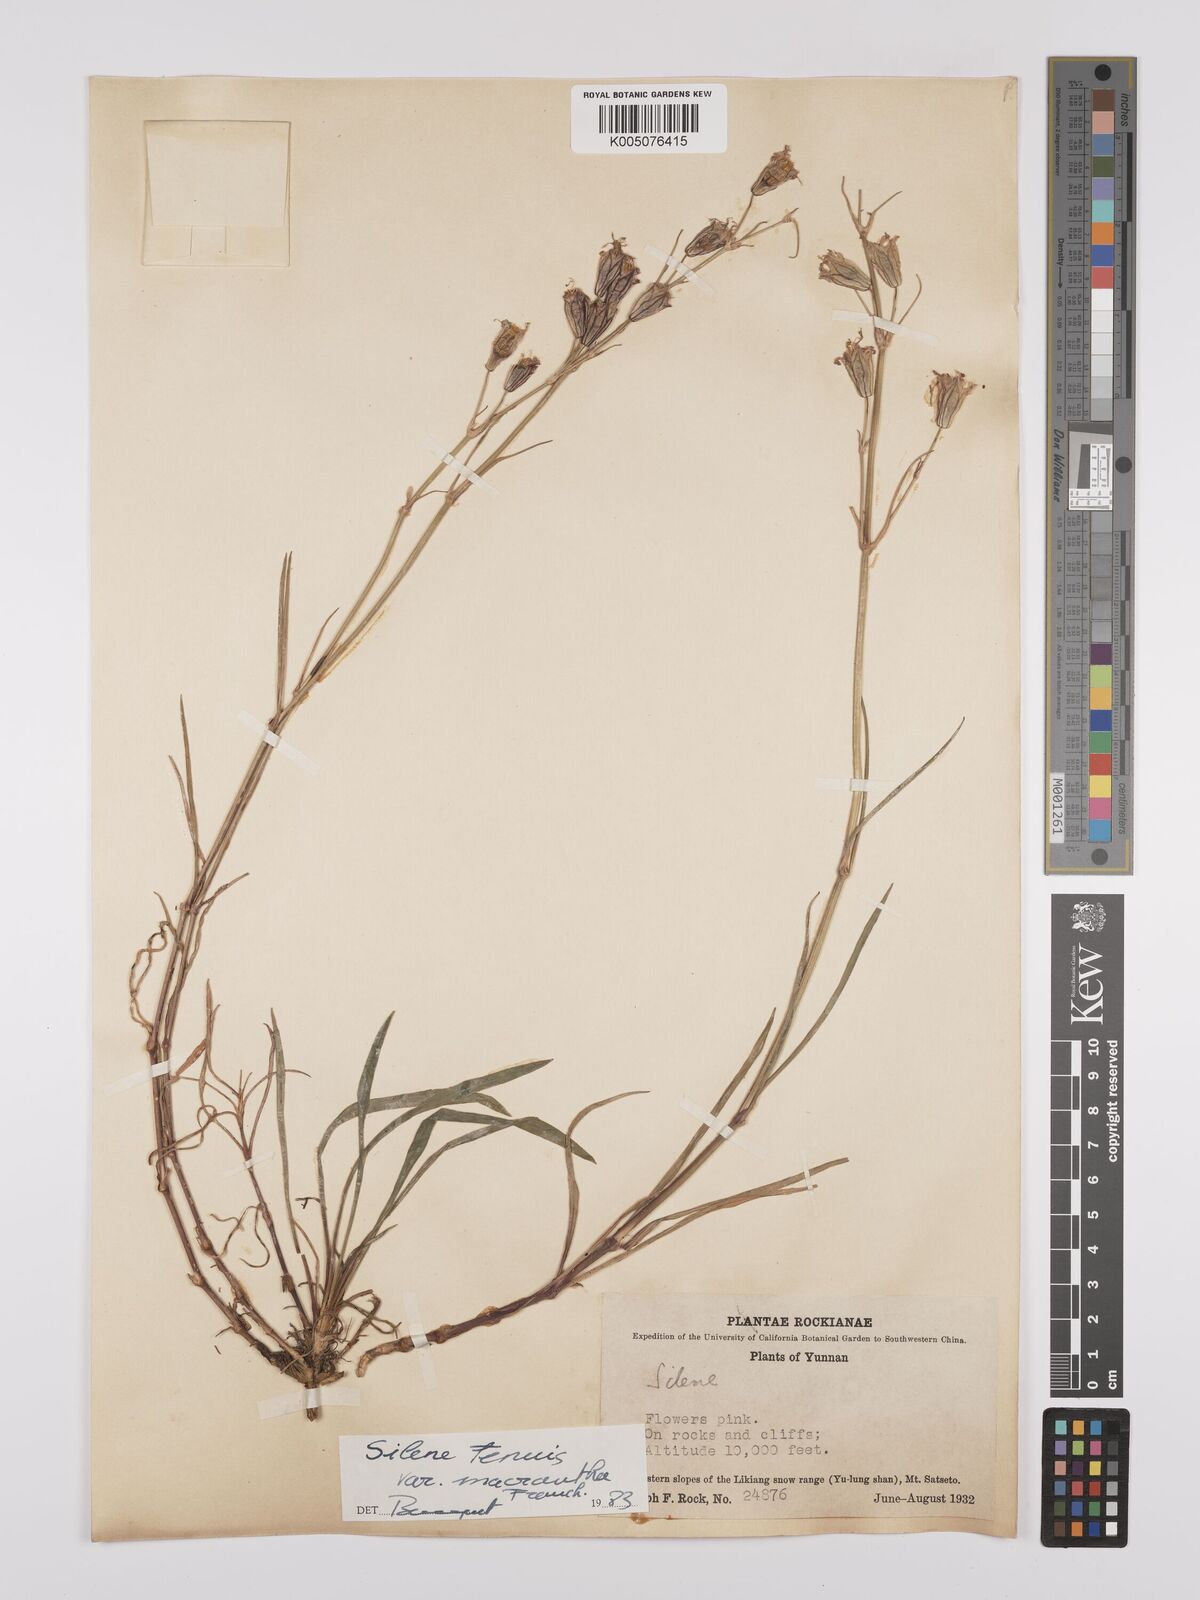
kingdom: Plantae
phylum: Tracheophyta
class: Magnoliopsida
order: Caryophyllales
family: Caryophyllaceae
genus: Silene
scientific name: Silene
